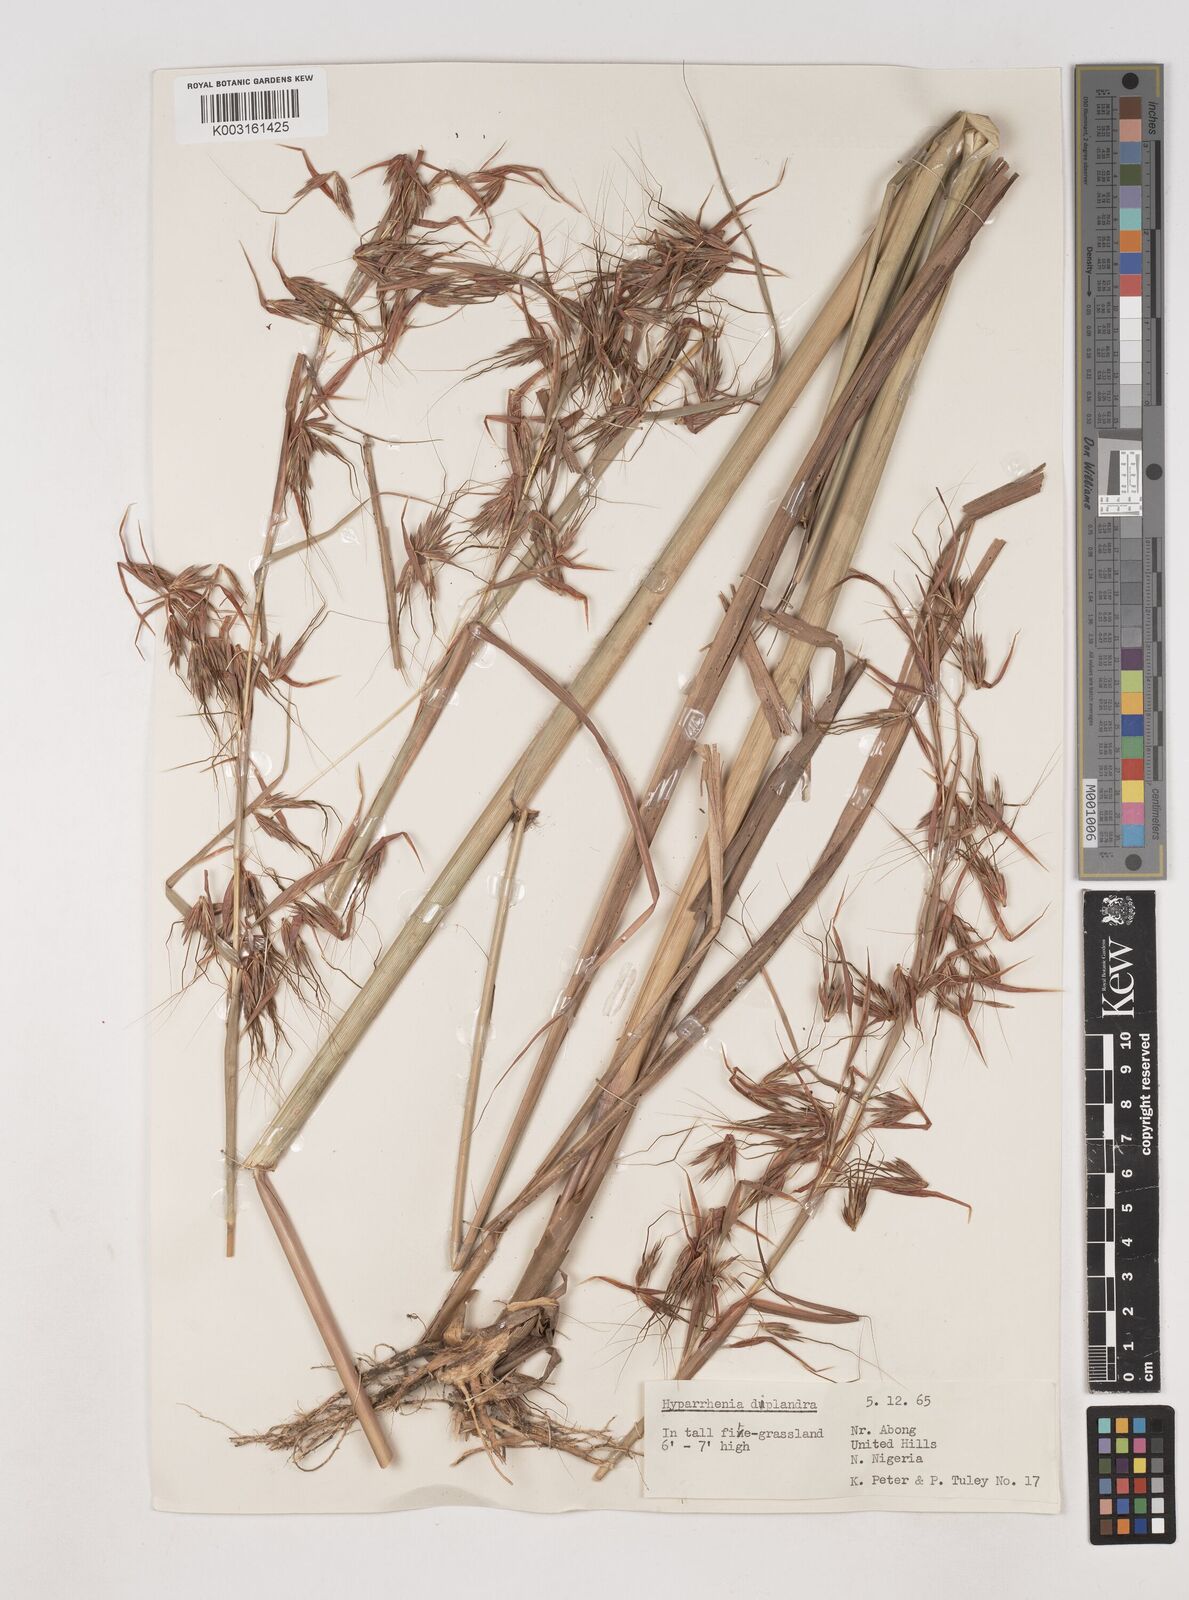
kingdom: Plantae
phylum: Tracheophyta
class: Liliopsida
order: Poales
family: Poaceae
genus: Hyparrhenia
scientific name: Hyparrhenia diplandra
